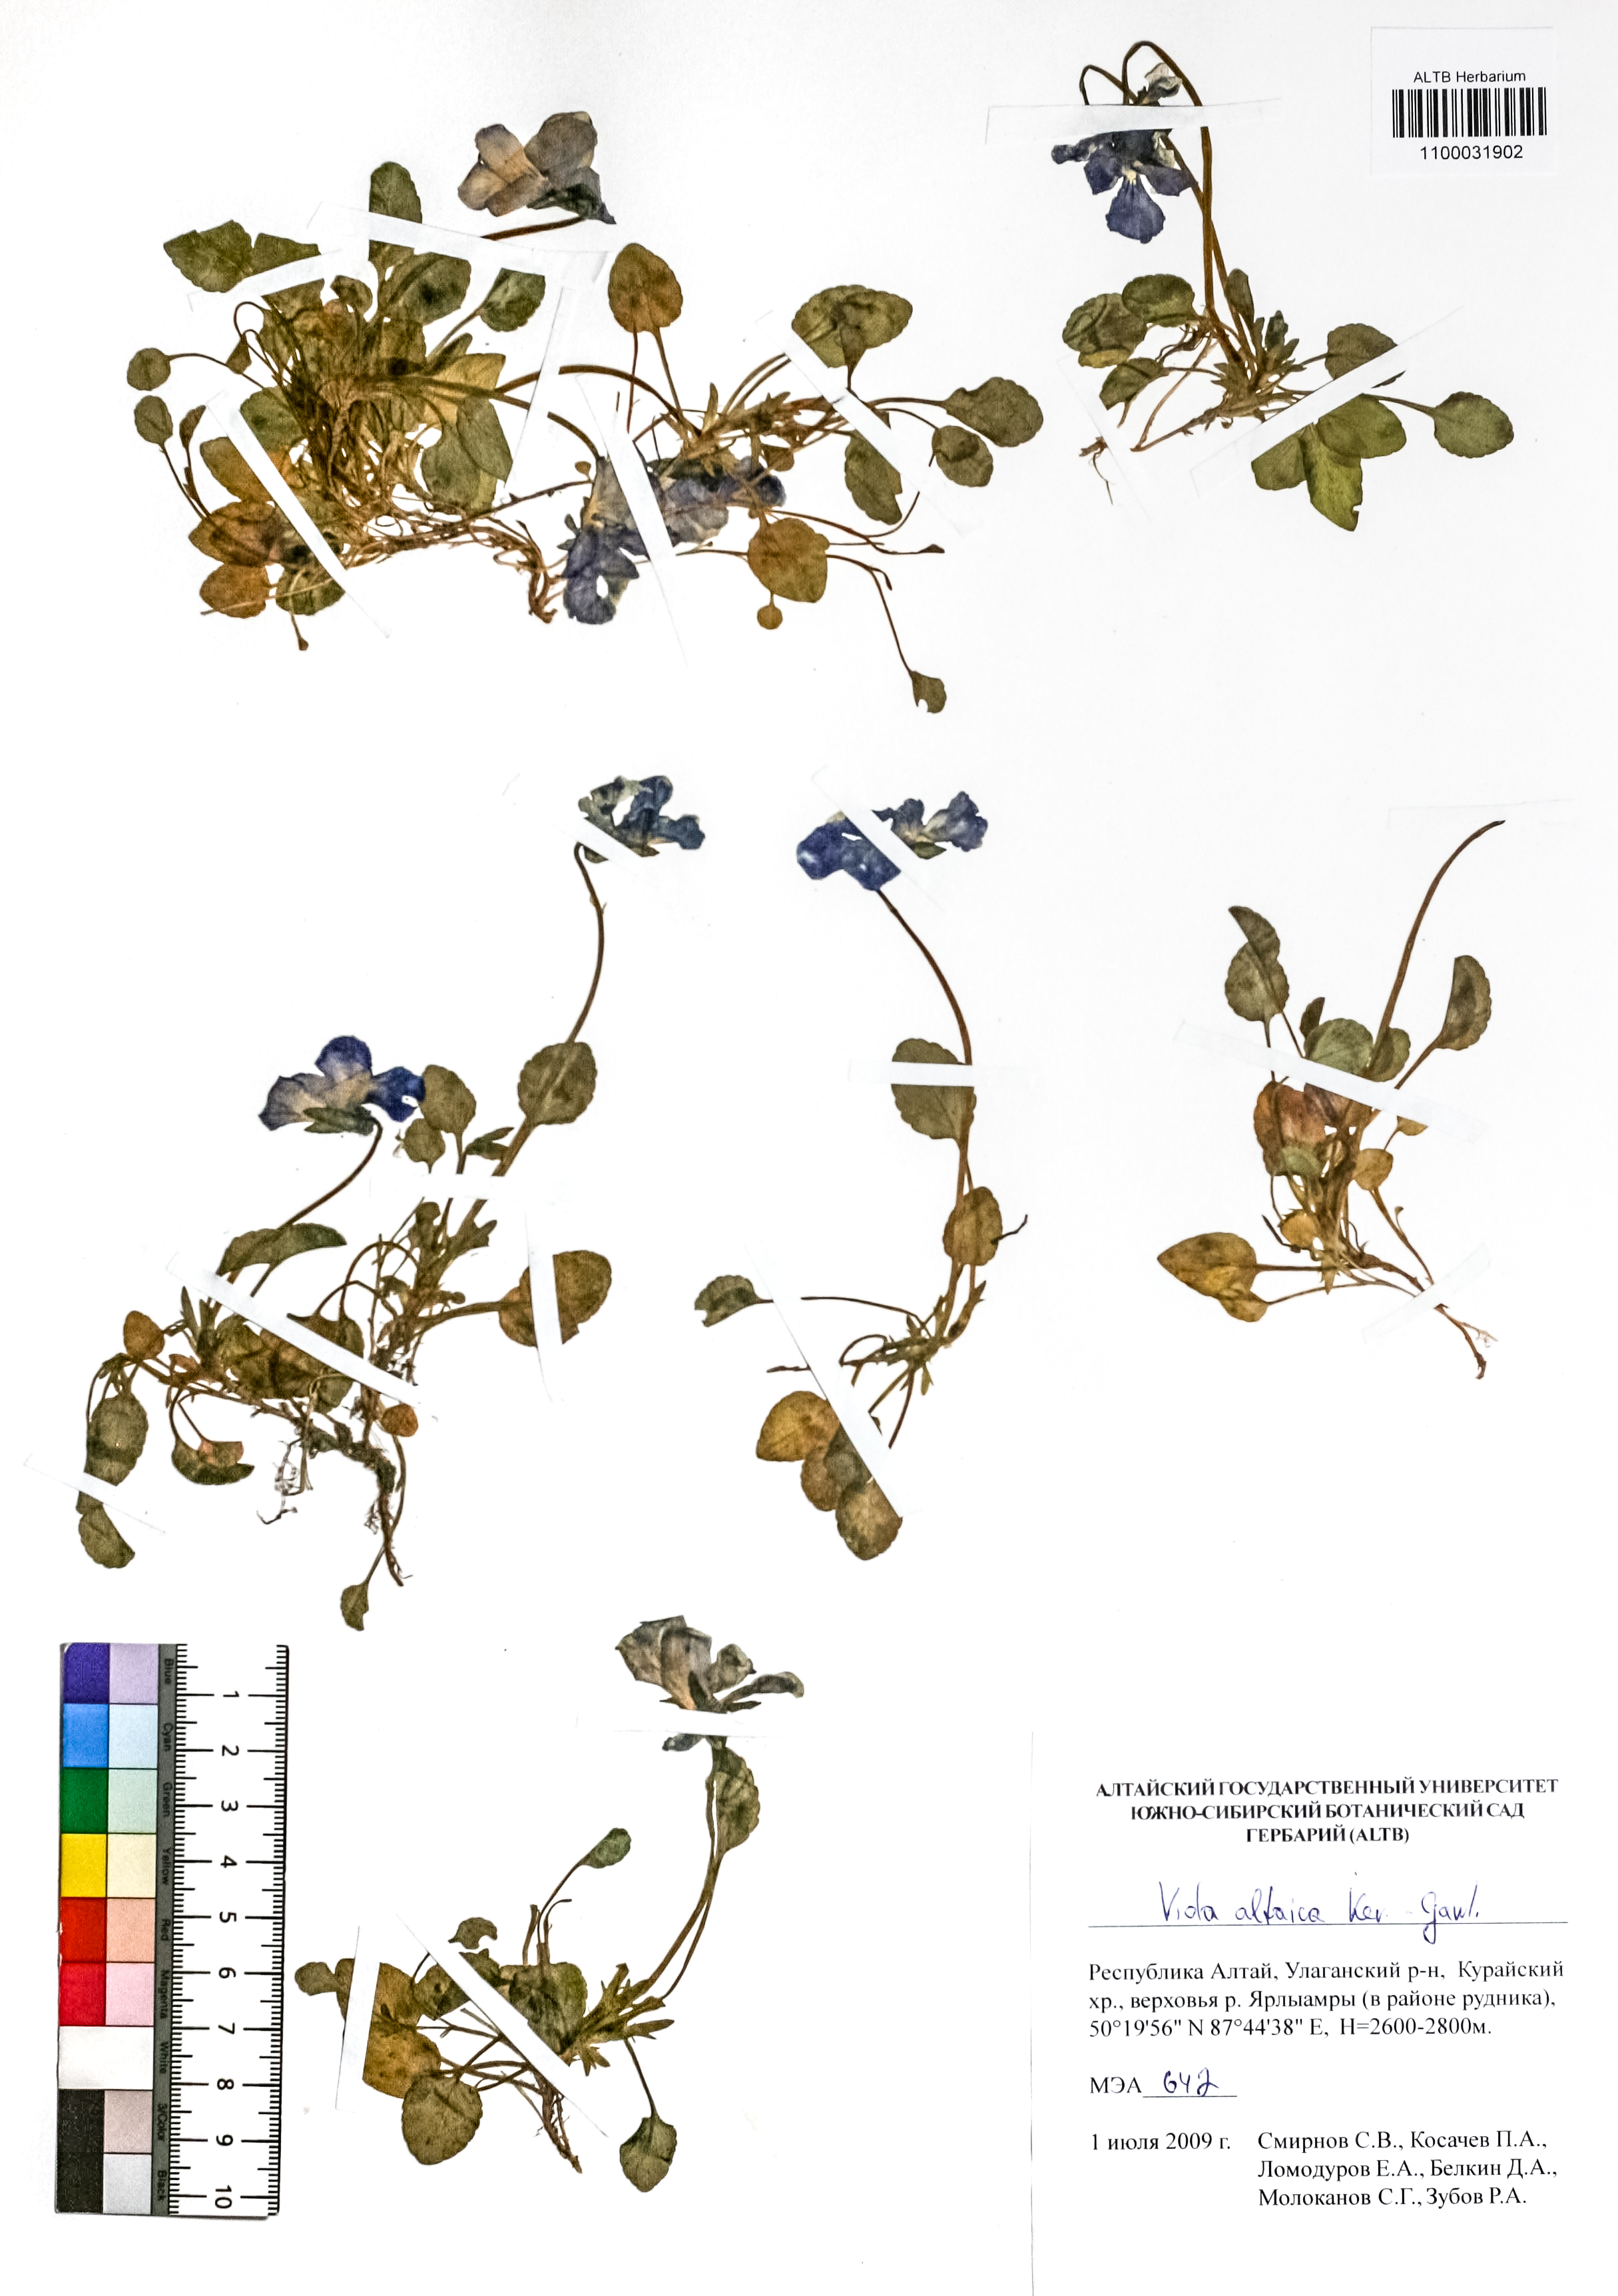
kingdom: Plantae
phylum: Tracheophyta
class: Magnoliopsida
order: Malpighiales
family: Violaceae
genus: Viola
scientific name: Viola altaica
